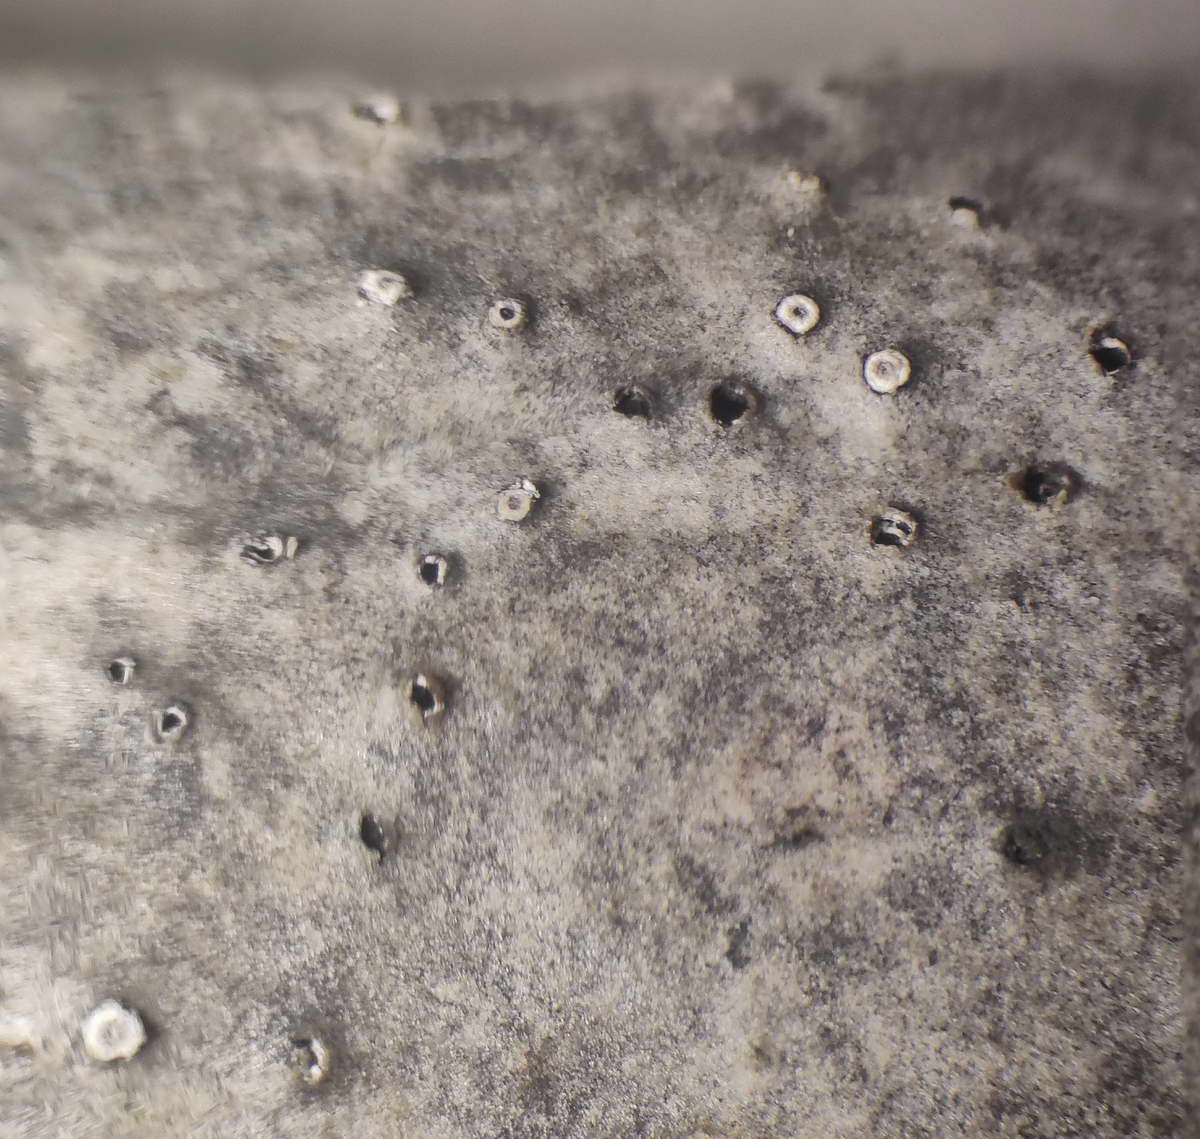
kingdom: Fungi
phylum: Ascomycota
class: Sordariomycetes
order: Diaporthales
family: Valsaceae
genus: Cytospora
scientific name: Cytospora nivea
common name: hvidskivet kulknippe
